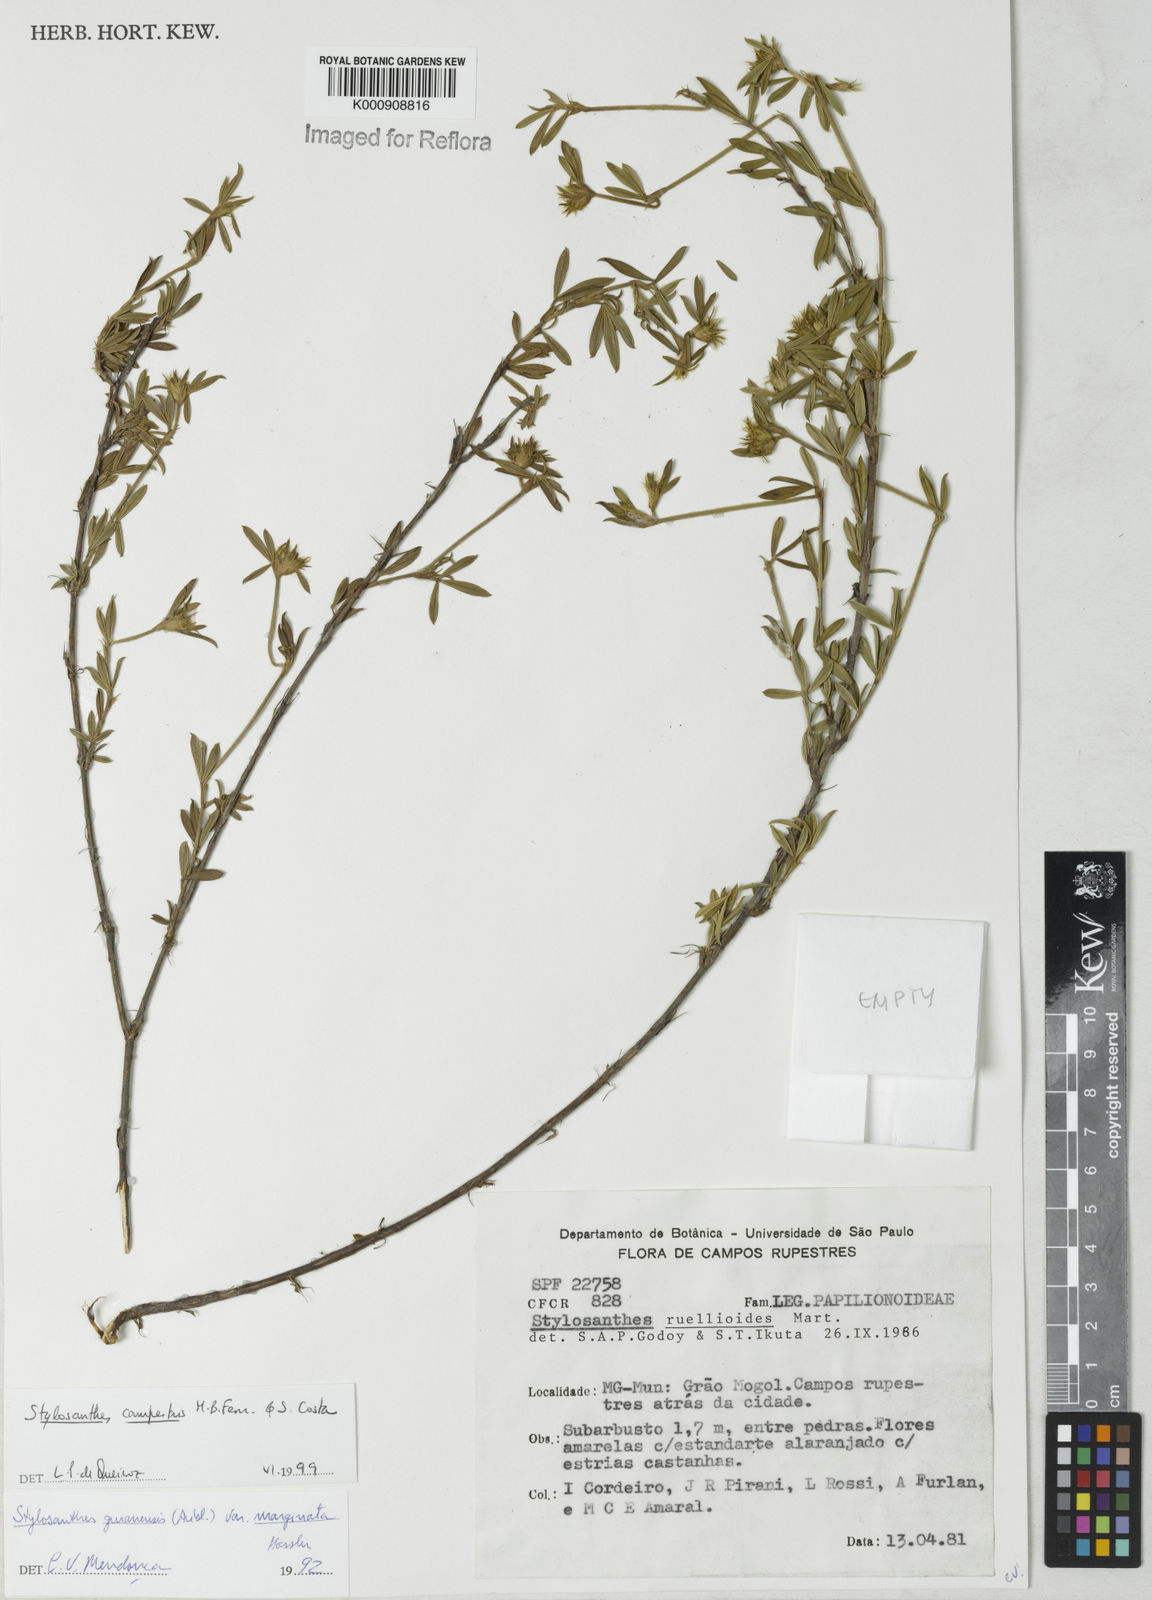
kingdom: Plantae
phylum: Tracheophyta
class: Magnoliopsida
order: Fabales
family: Fabaceae
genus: Stylosanthes
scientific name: Stylosanthes campestris
